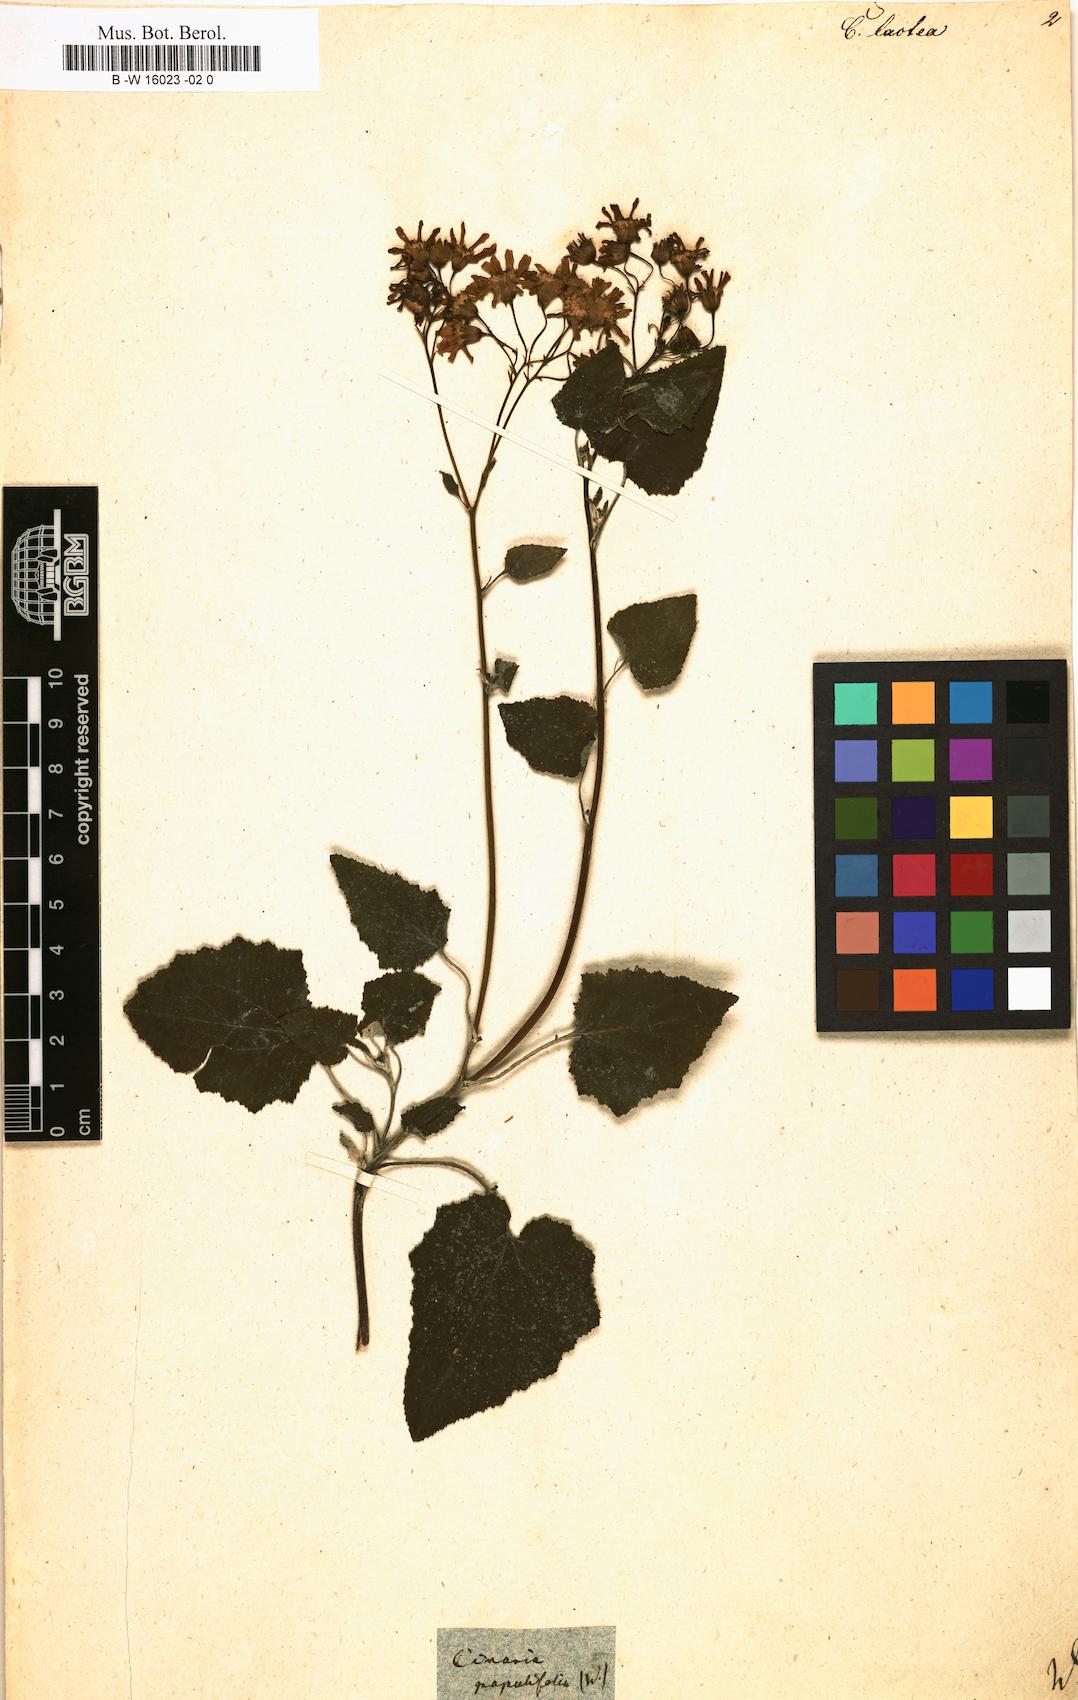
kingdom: Plantae
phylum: Tracheophyta
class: Magnoliopsida
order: Asterales
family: Asteraceae
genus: Pericallis
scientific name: Pericallis
